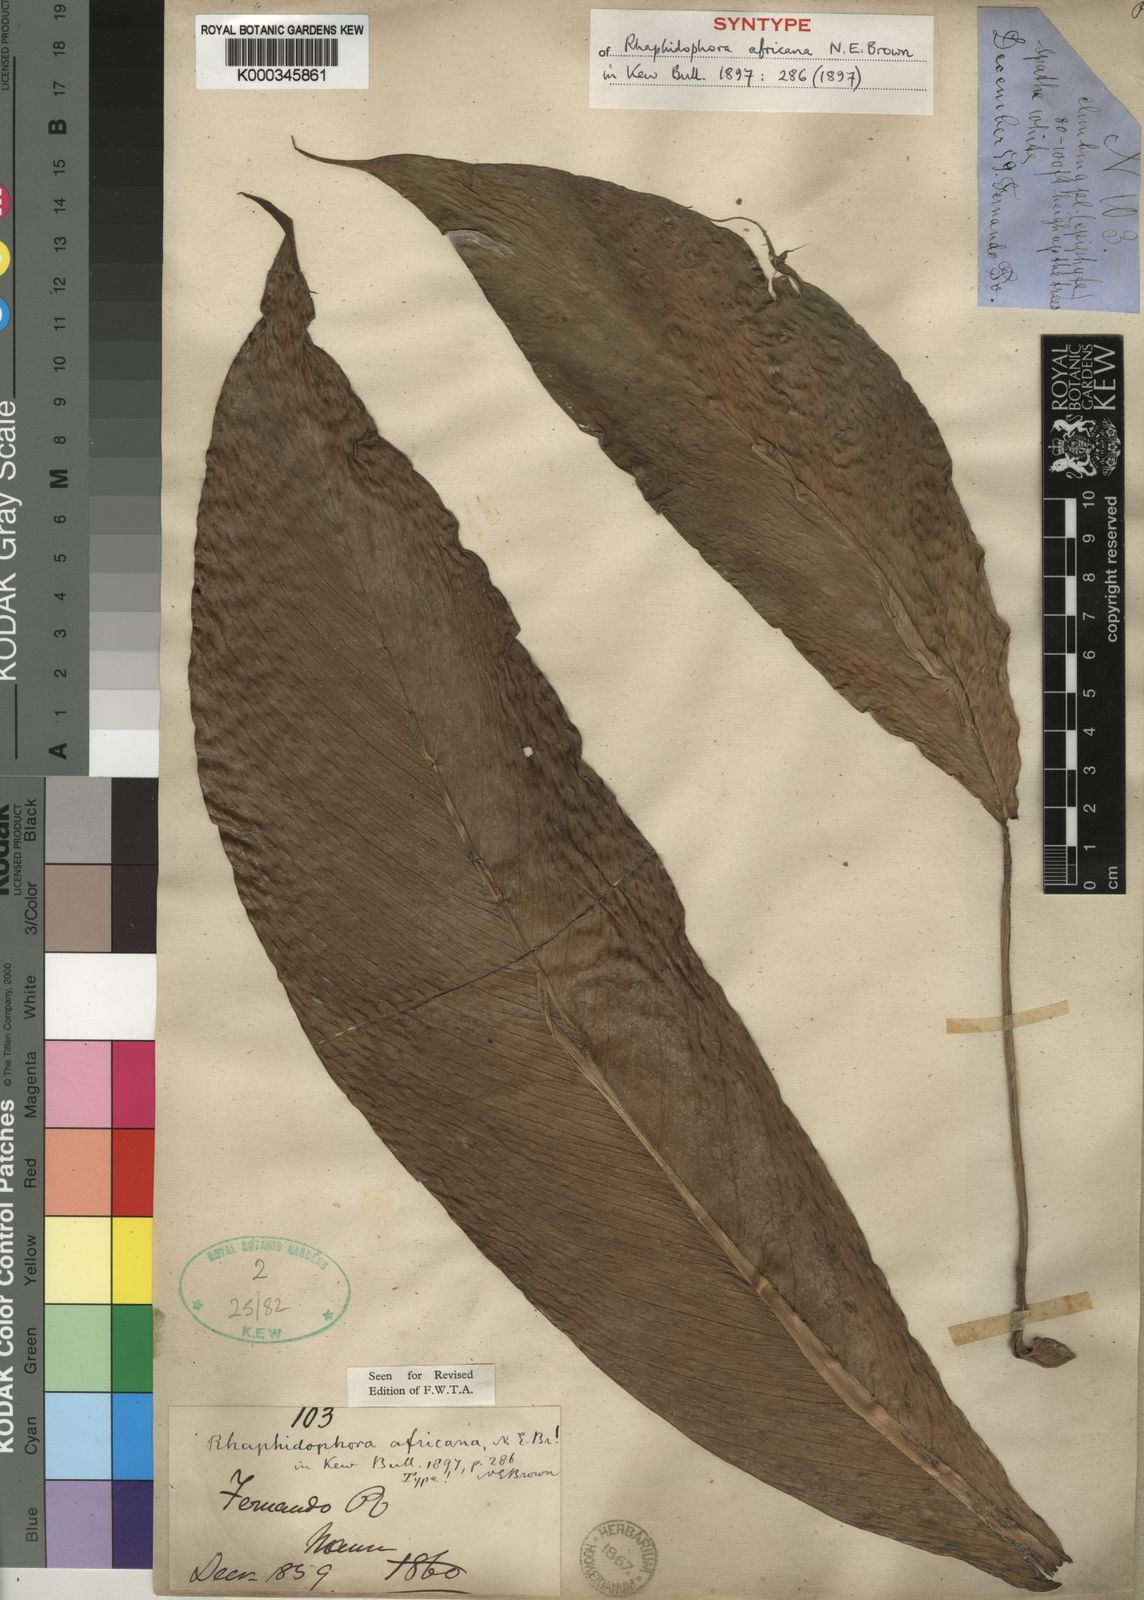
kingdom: Plantae
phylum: Tracheophyta
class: Liliopsida
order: Alismatales
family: Araceae
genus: Rhaphidophora
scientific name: Rhaphidophora africana
